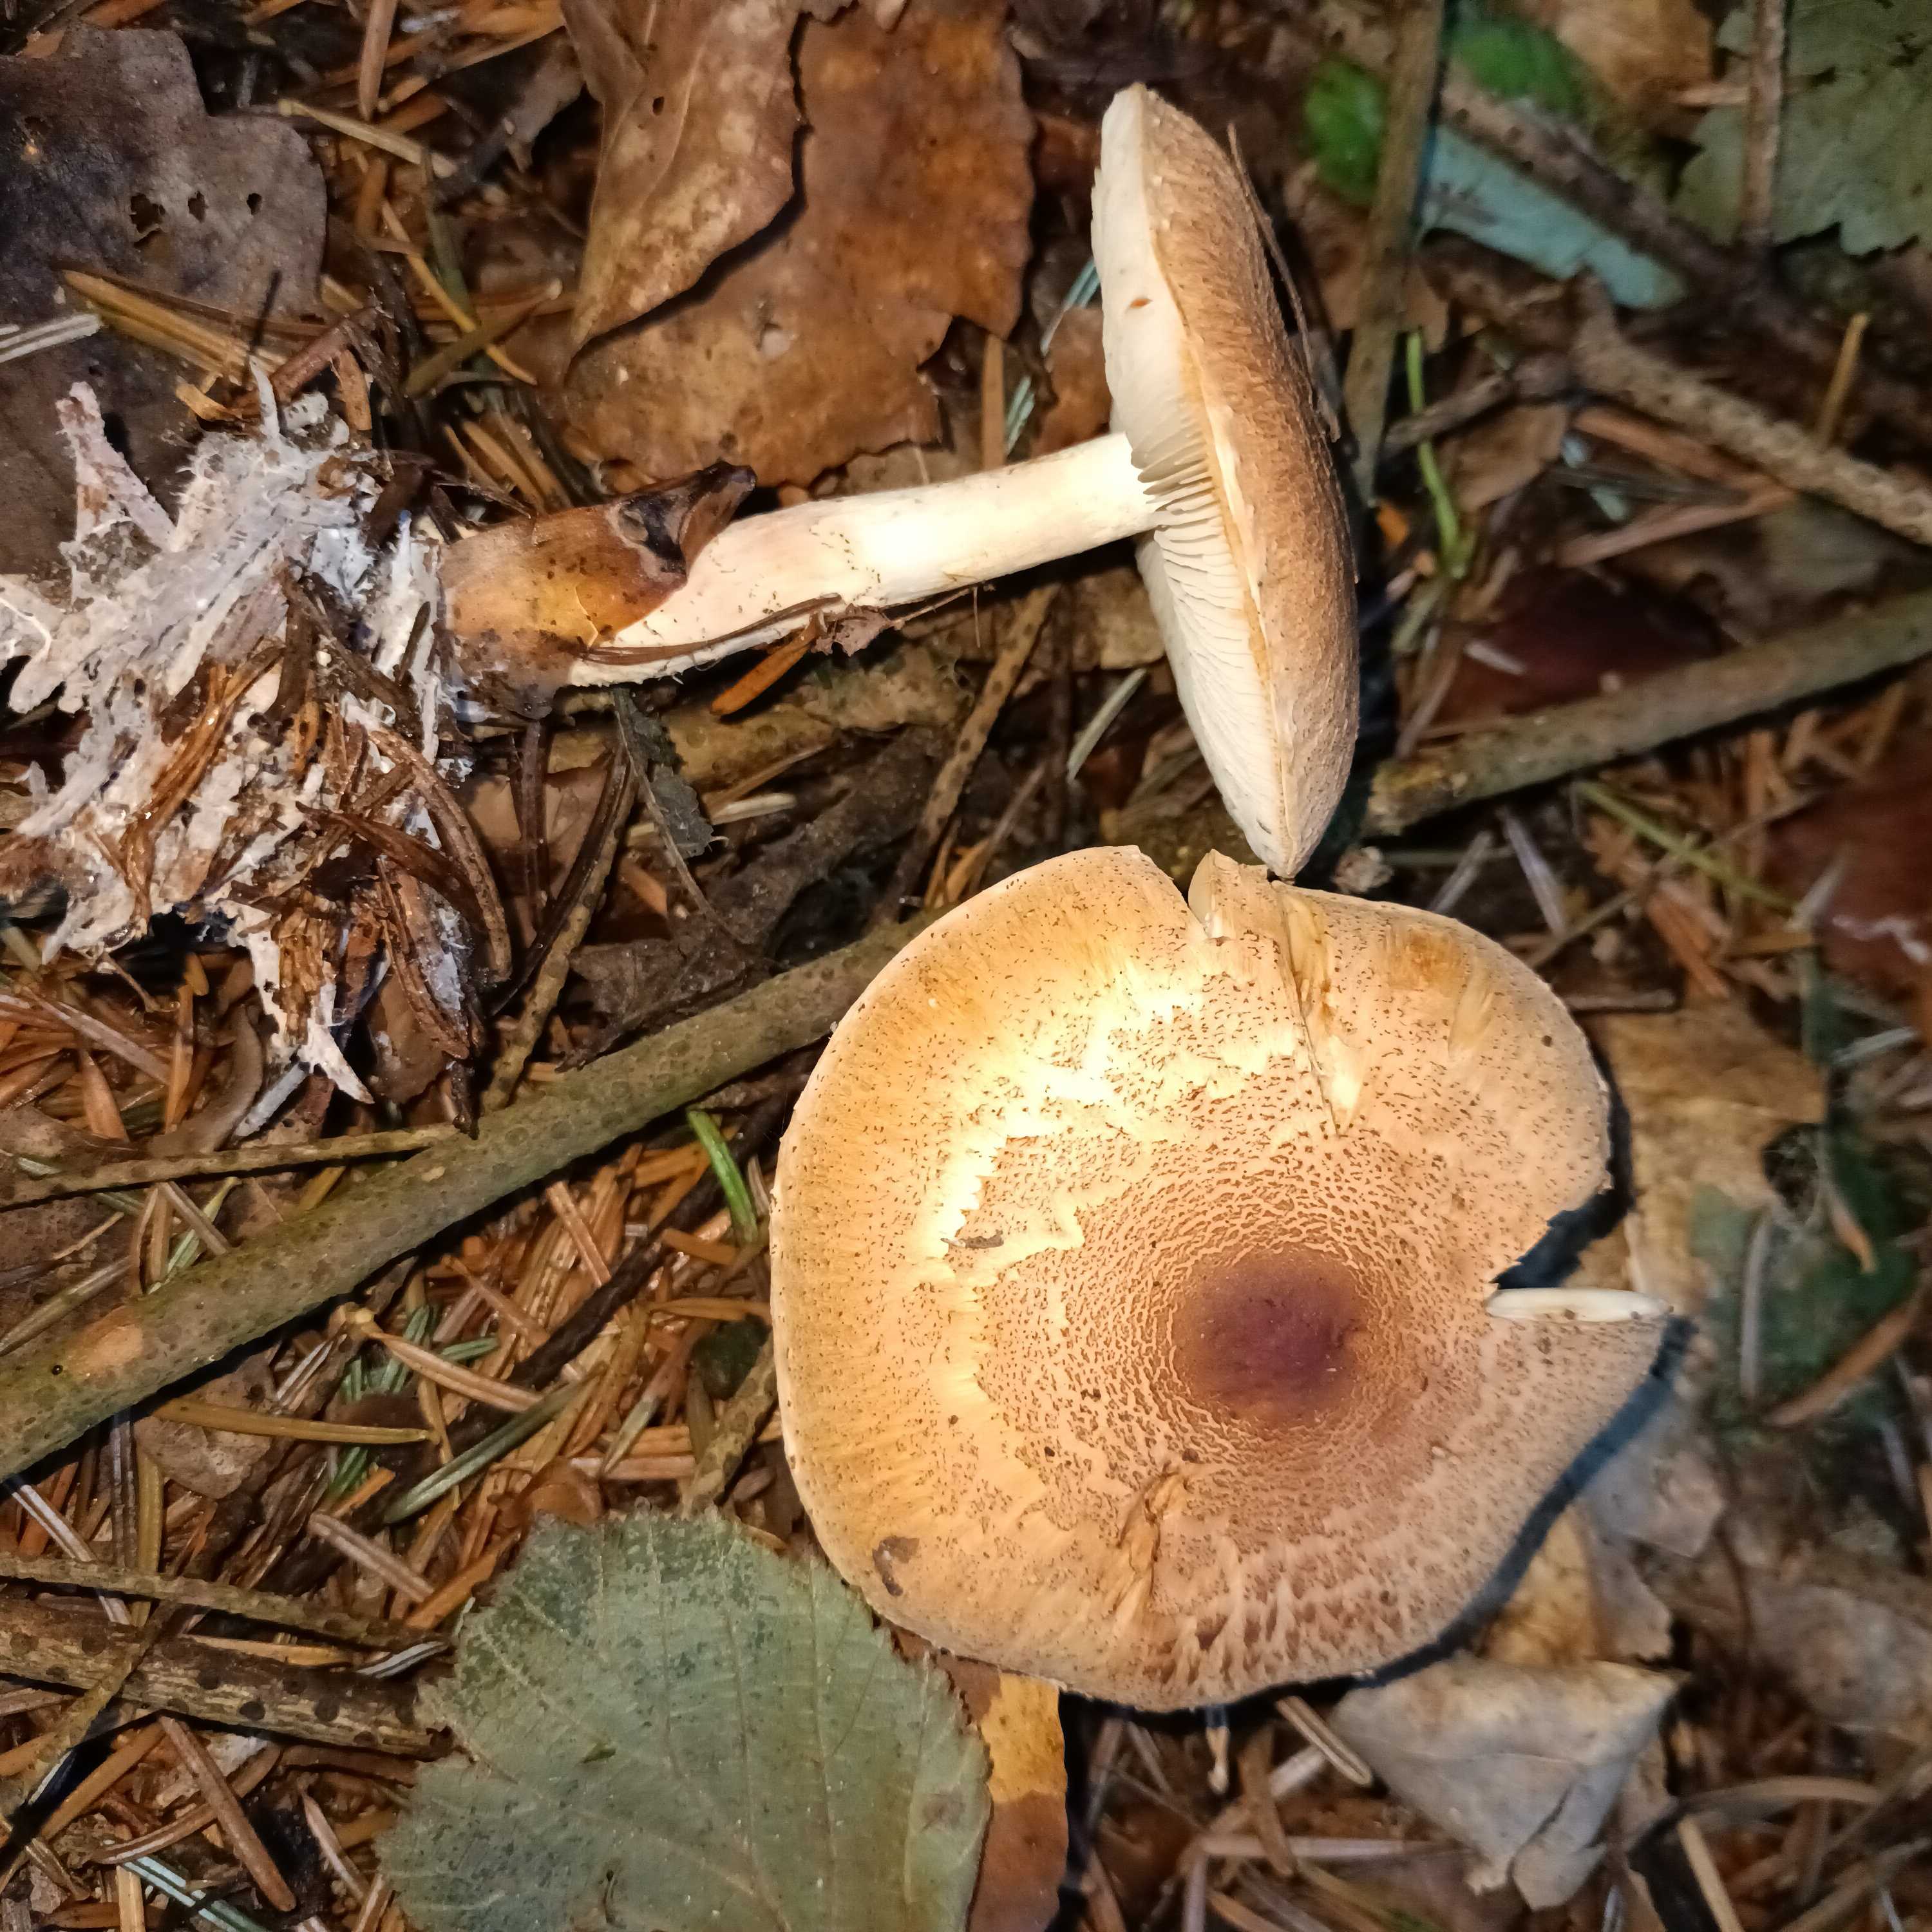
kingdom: Fungi
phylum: Basidiomycota
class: Agaricomycetes
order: Agaricales
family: Agaricaceae
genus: Lepiota
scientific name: Lepiota ochraceofulva
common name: sødtduftende parasolhat
